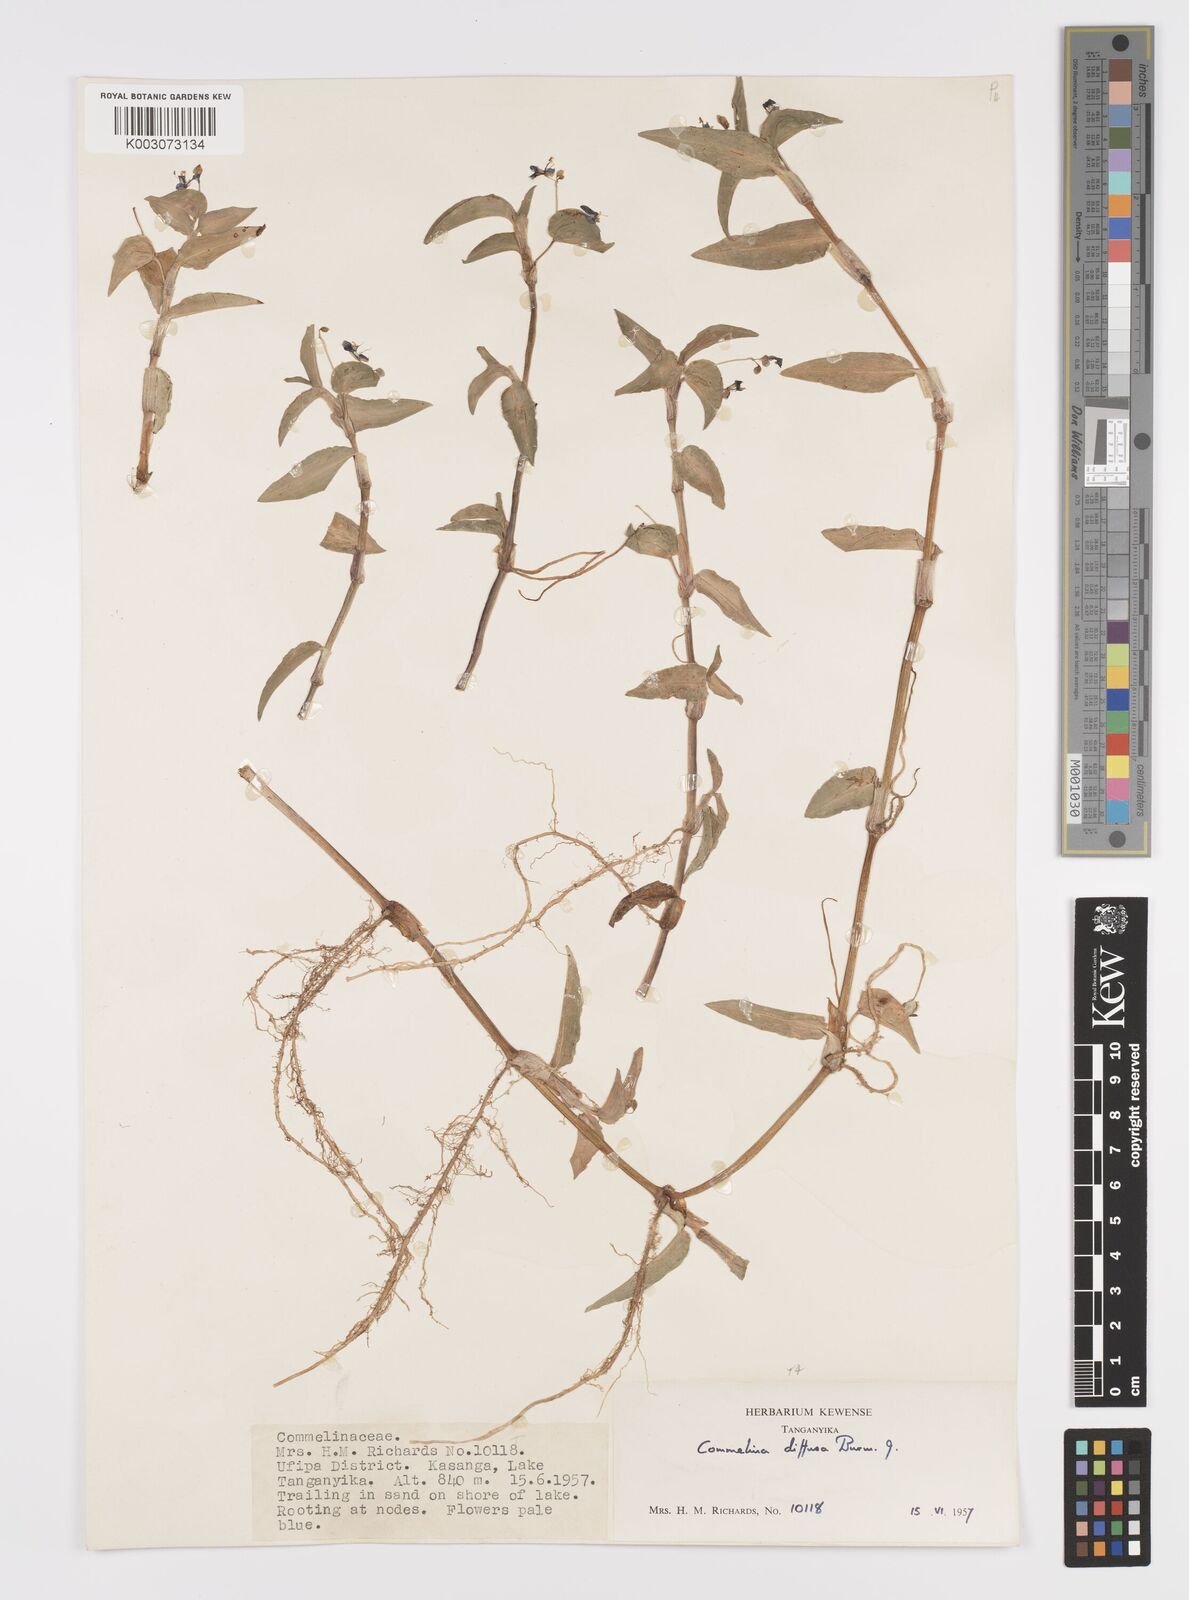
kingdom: Plantae
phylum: Tracheophyta
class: Liliopsida
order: Commelinales
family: Commelinaceae
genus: Commelina
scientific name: Commelina diffusa
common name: Climbing dayflower
